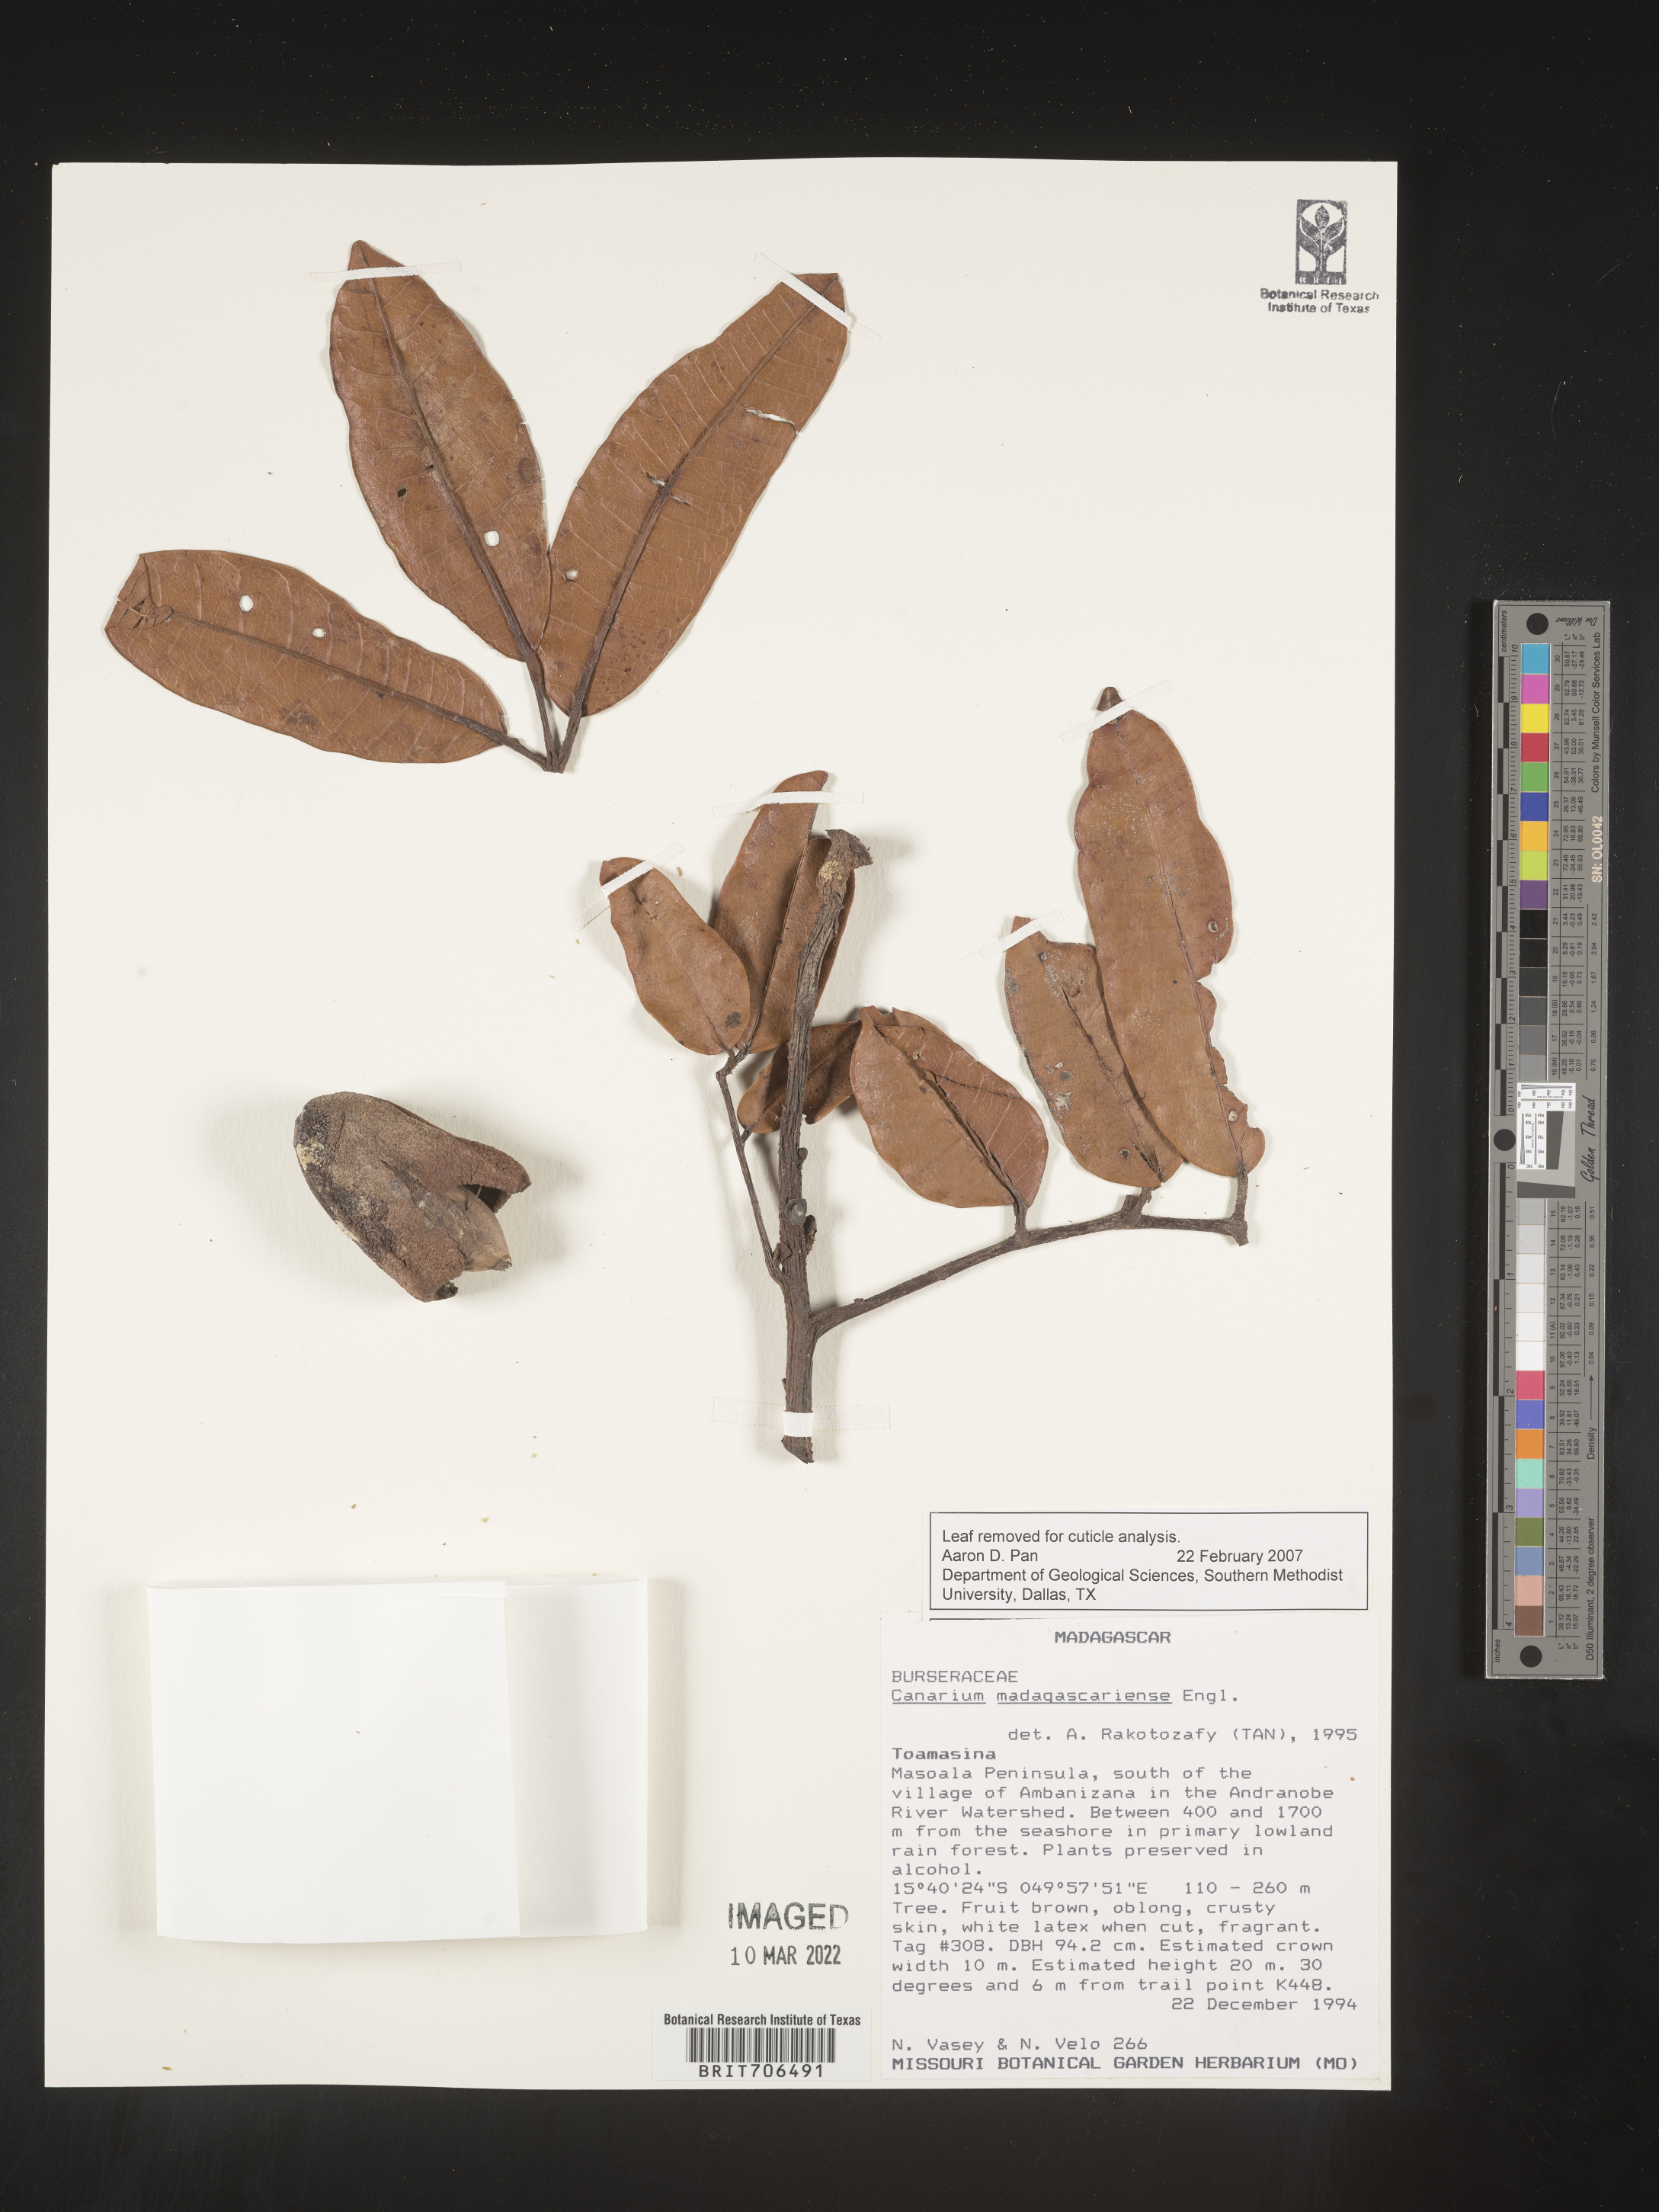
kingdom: Plantae
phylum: Tracheophyta
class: Magnoliopsida
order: Sapindales
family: Burseraceae
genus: Canarium
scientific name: Canarium
